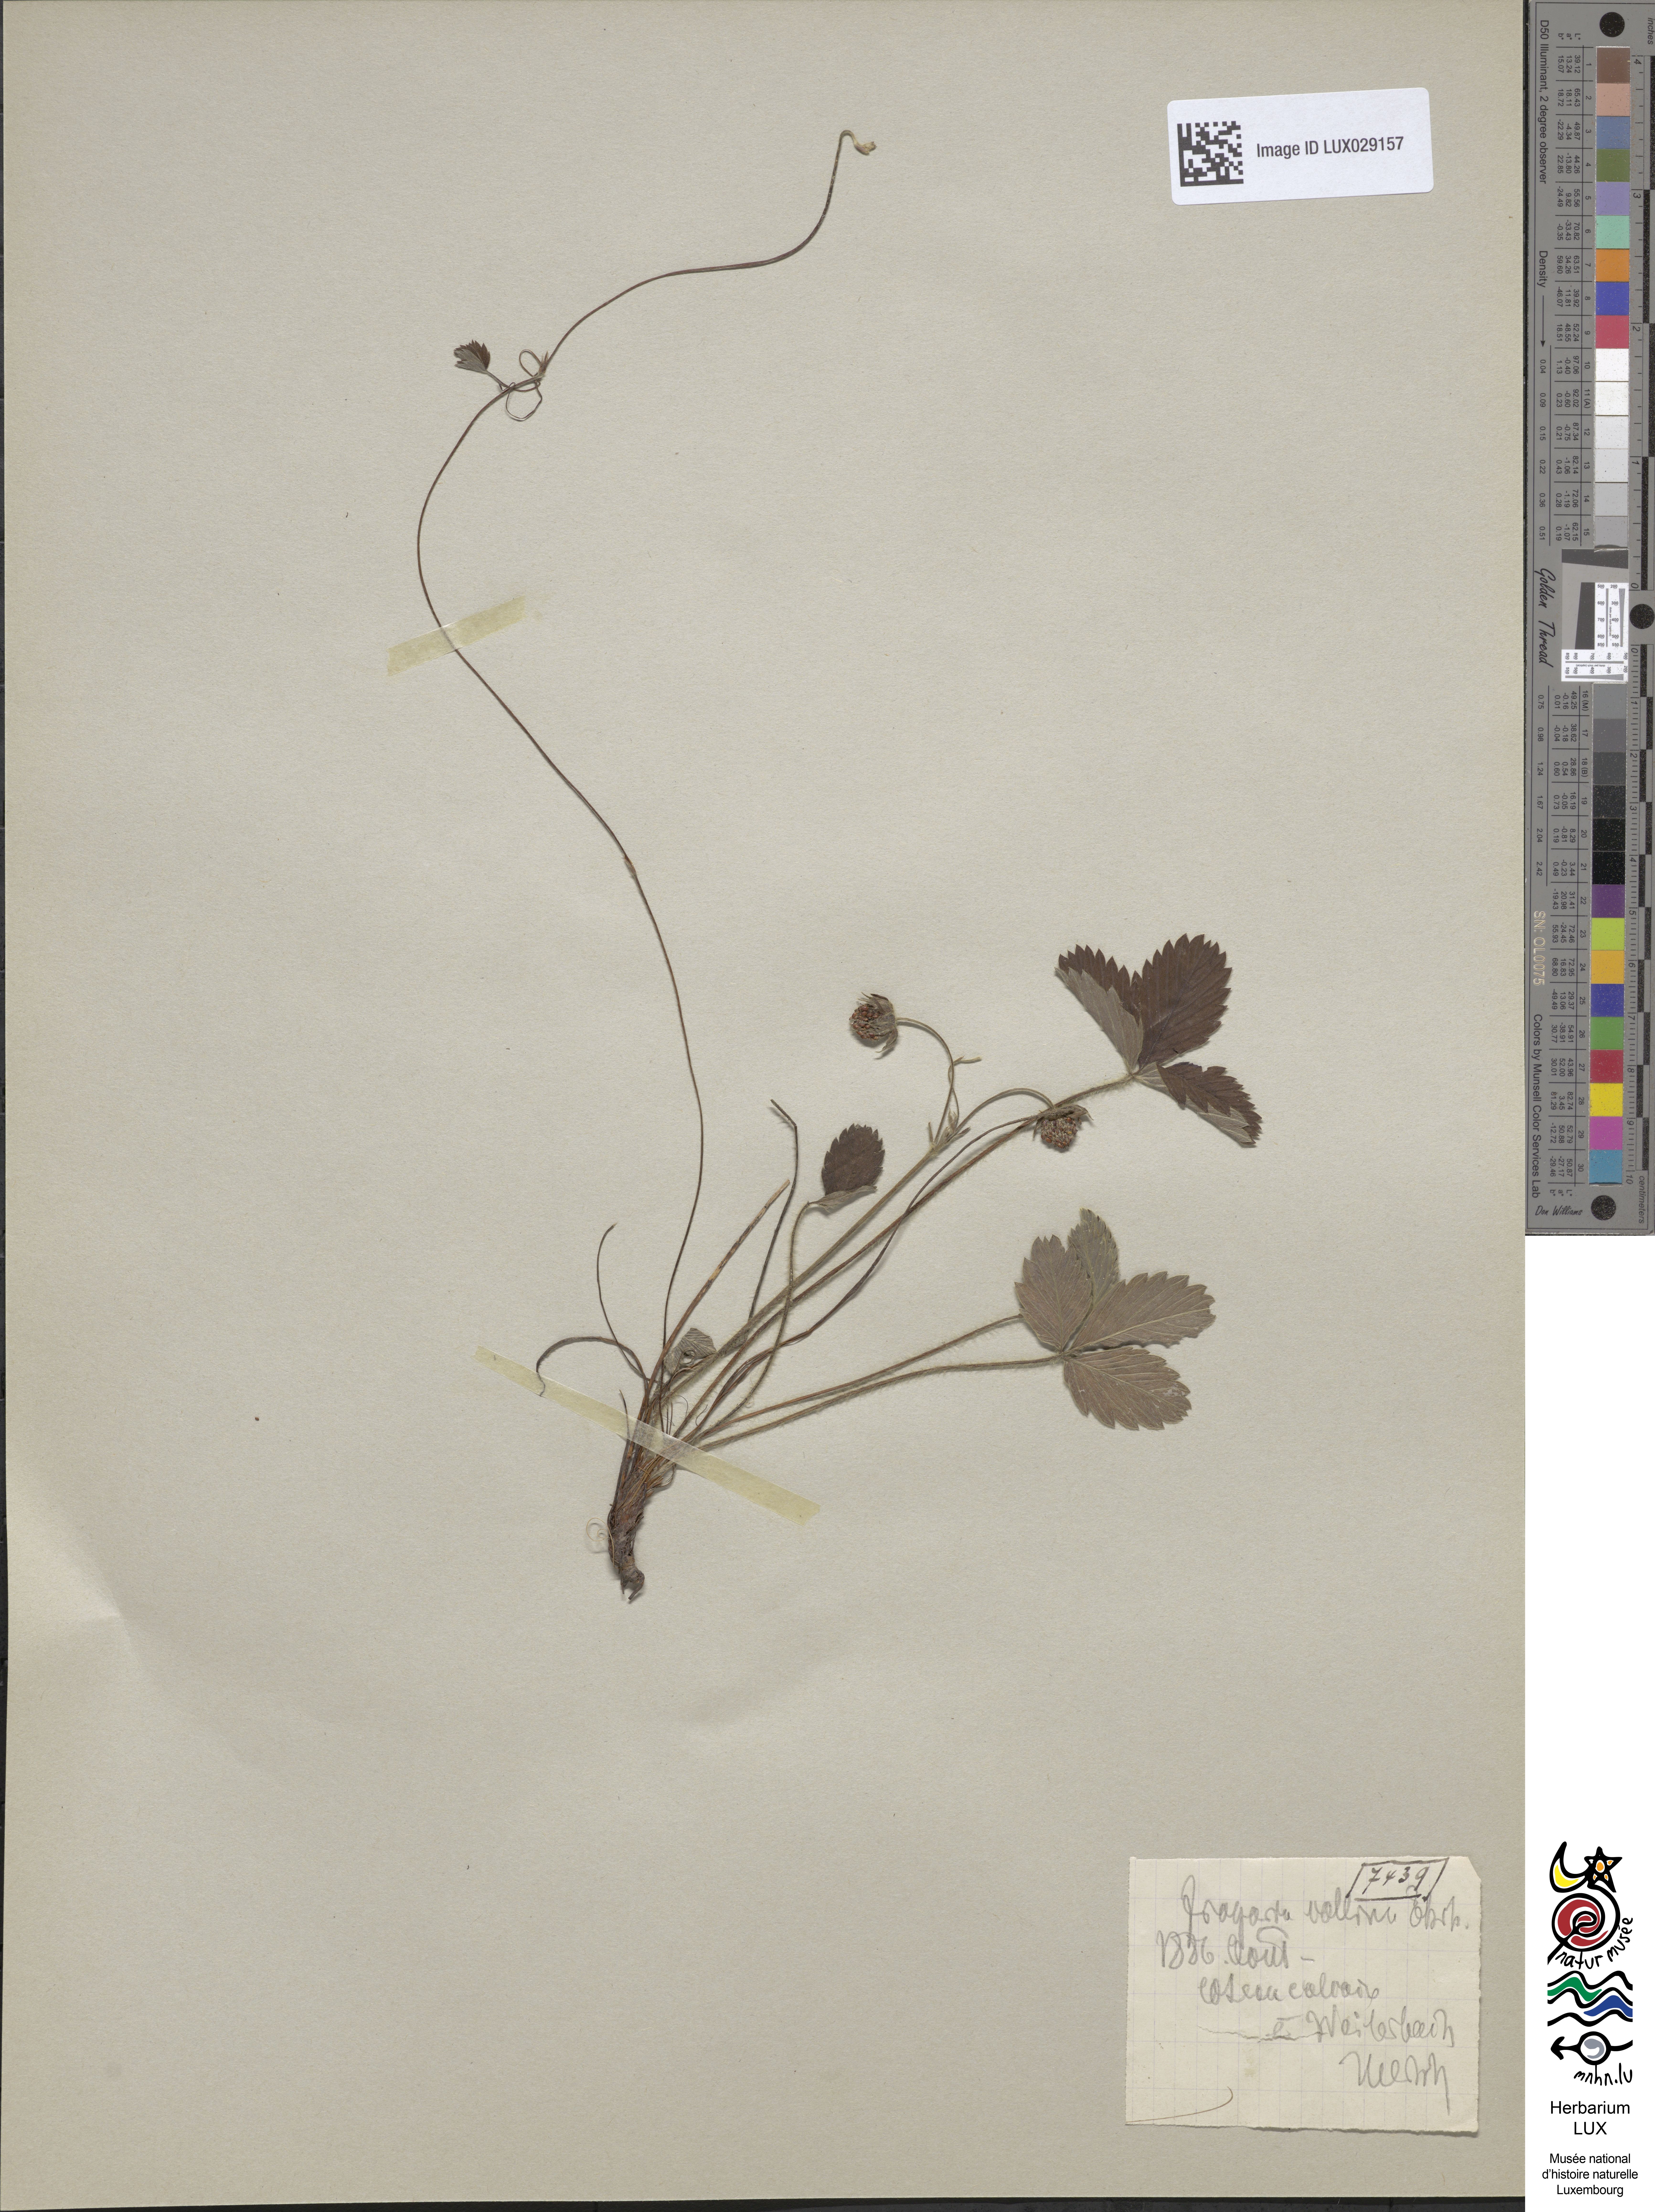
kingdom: Plantae
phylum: Tracheophyta
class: Magnoliopsida
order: Rosales
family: Rosaceae
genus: Fragaria
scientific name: Fragaria viridis
